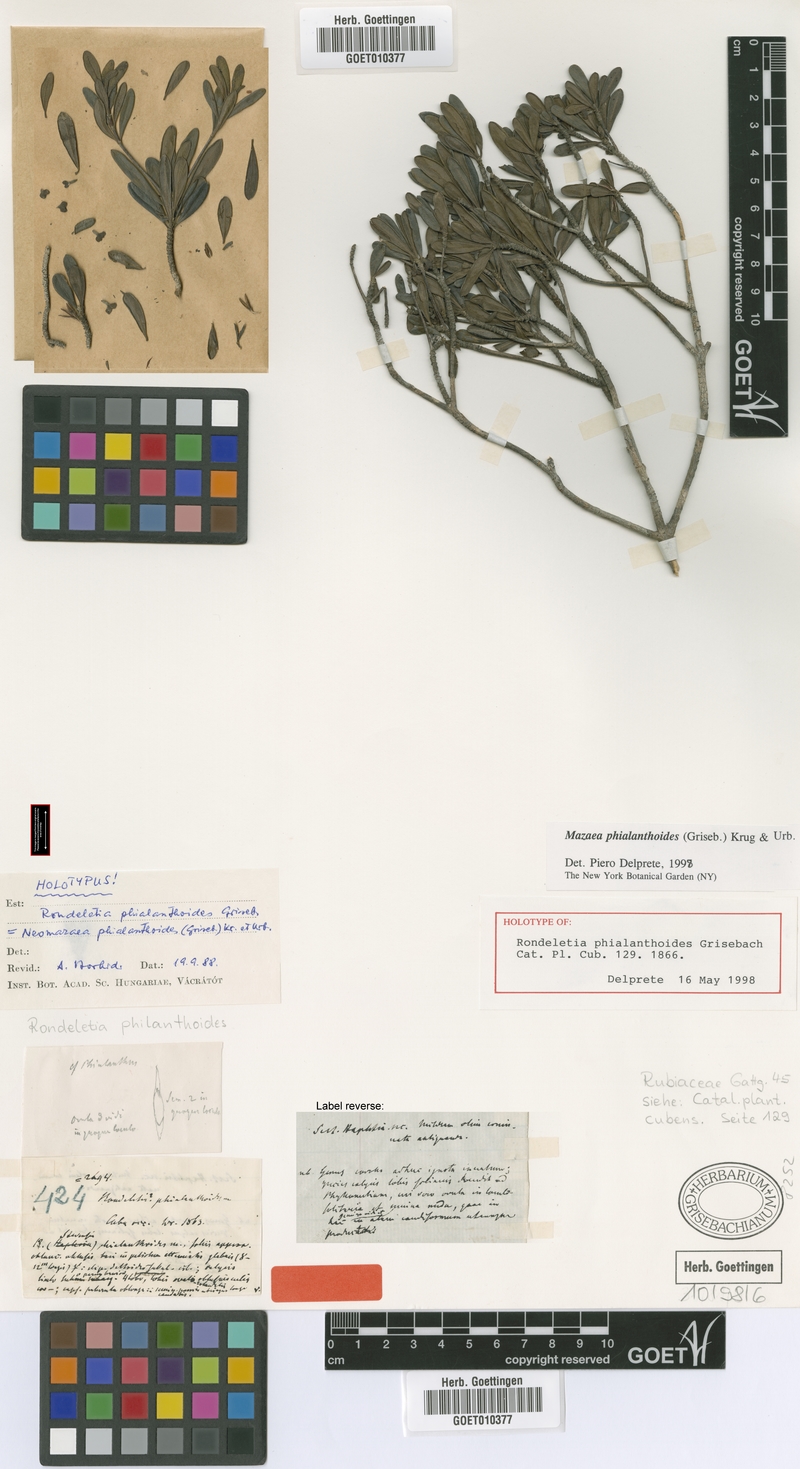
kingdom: Plantae
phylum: Tracheophyta
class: Magnoliopsida
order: Gentianales
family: Rubiaceae
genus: Mazaea
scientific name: Mazaea phialanthoides
